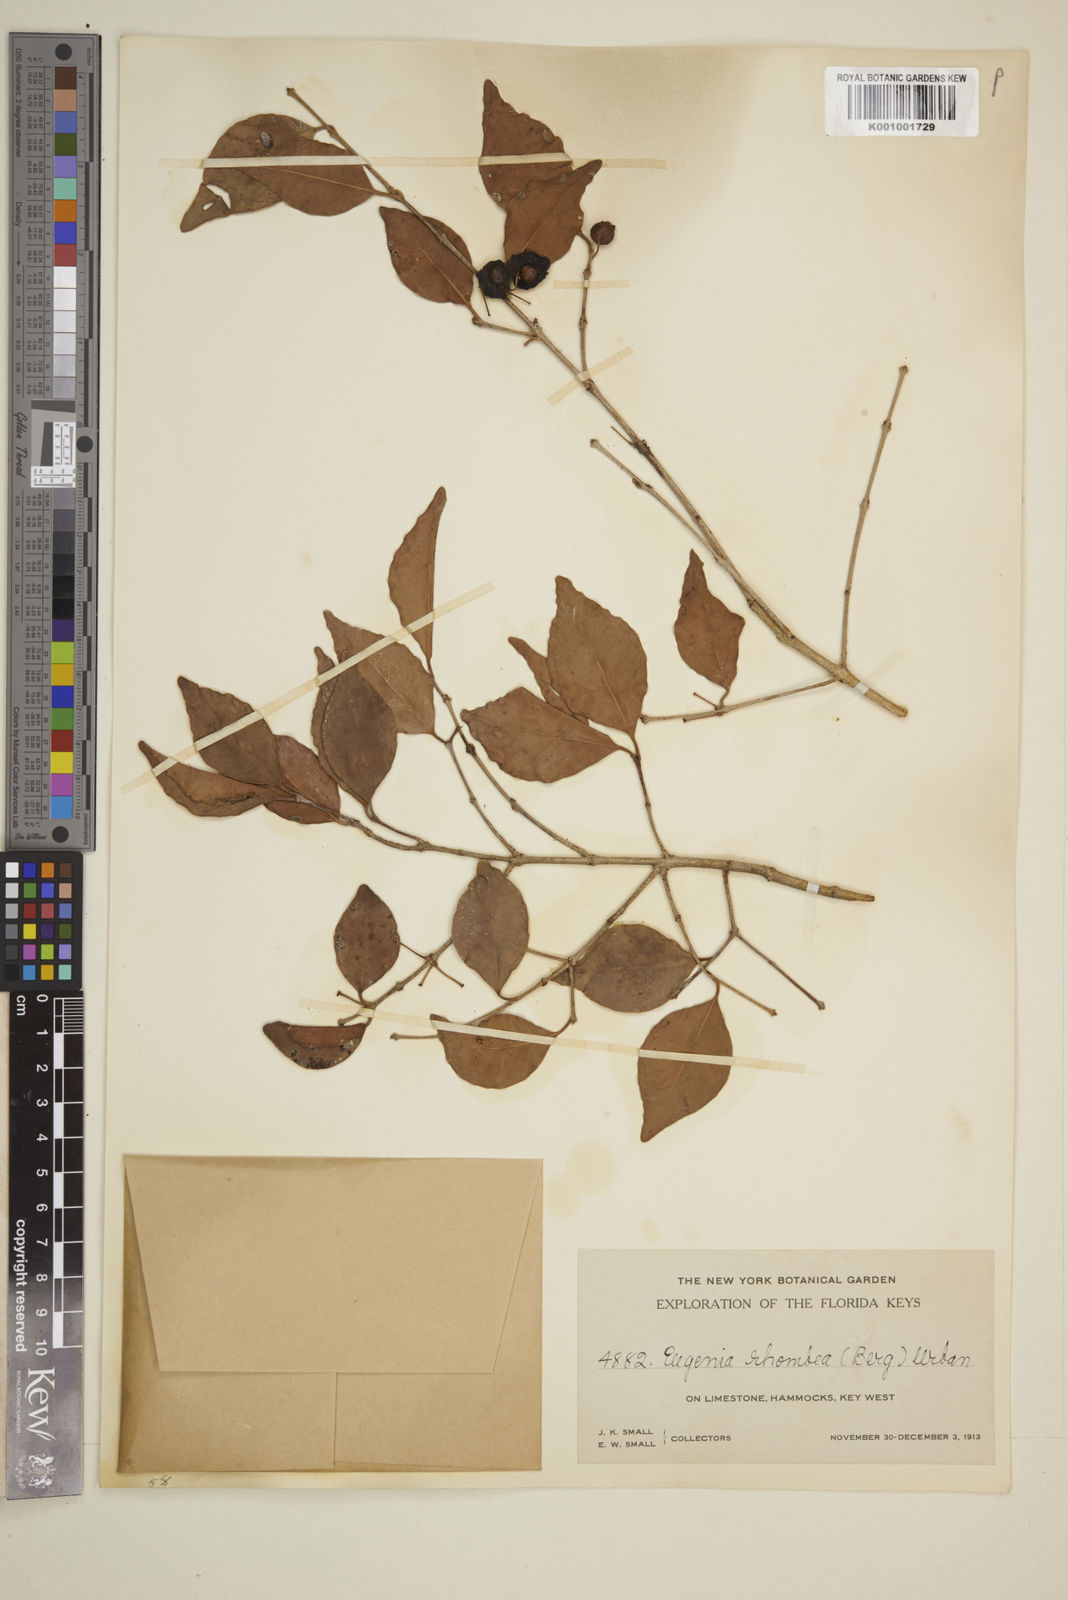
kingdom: Plantae
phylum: Tracheophyta
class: Magnoliopsida
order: Myrtales
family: Myrtaceae
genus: Eugenia
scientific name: Eugenia rhombea
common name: Pigeon berry
